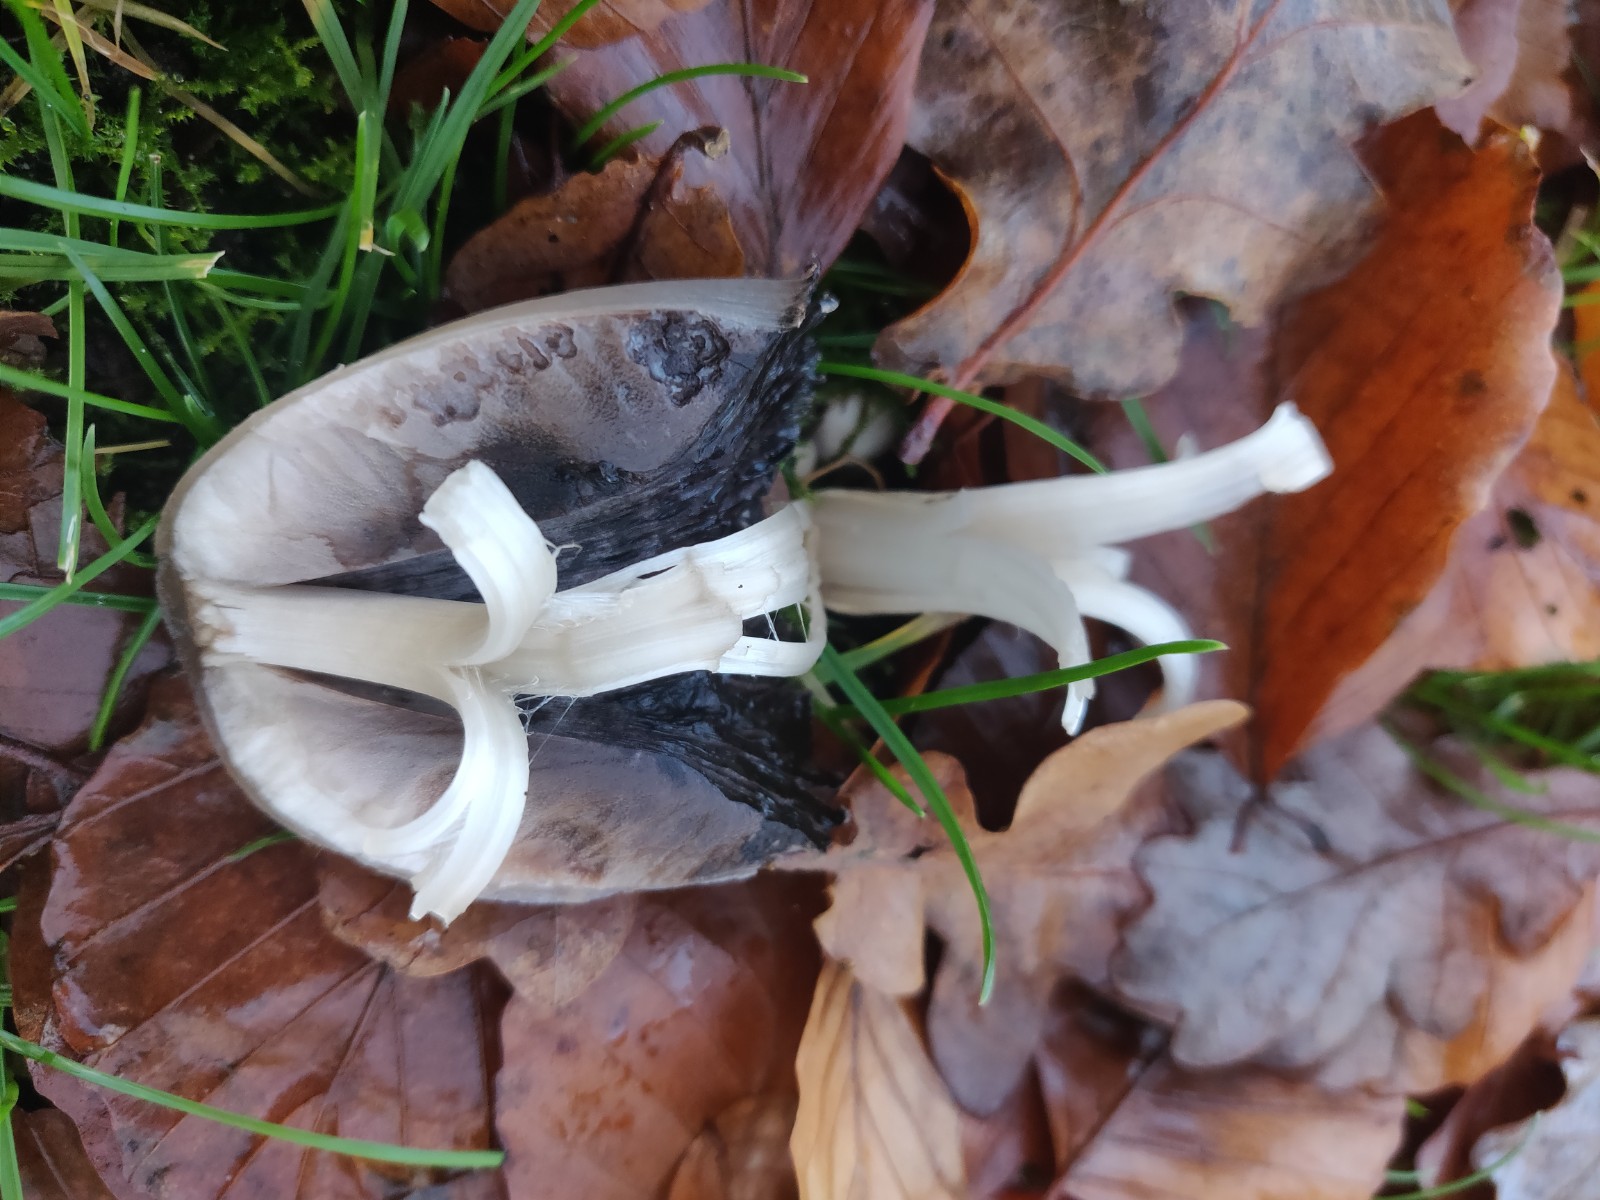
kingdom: Fungi
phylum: Basidiomycota
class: Agaricomycetes
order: Agaricales
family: Psathyrellaceae
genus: Coprinopsis
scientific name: Coprinopsis atramentaria
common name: almindelig blækhat
